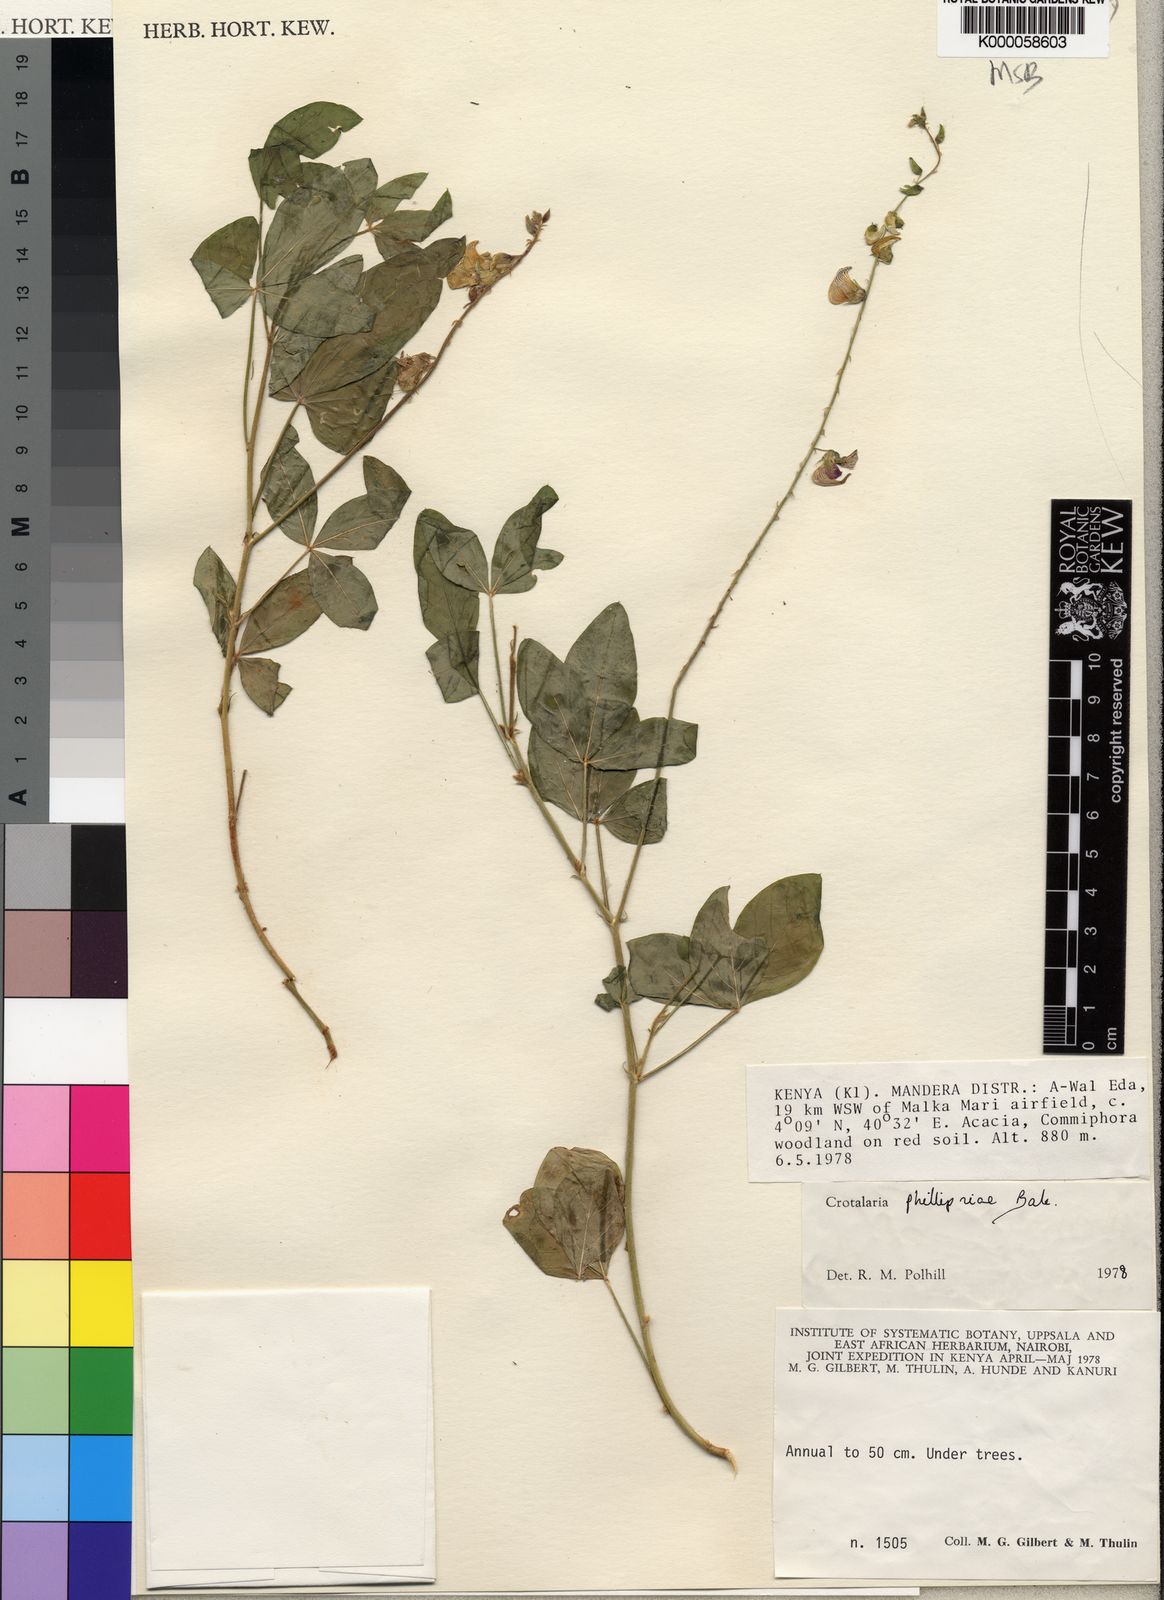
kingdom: Plantae
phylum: Tracheophyta
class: Magnoliopsida
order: Fabales
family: Fabaceae
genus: Crotalaria
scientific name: Crotalaria phillipsiae
